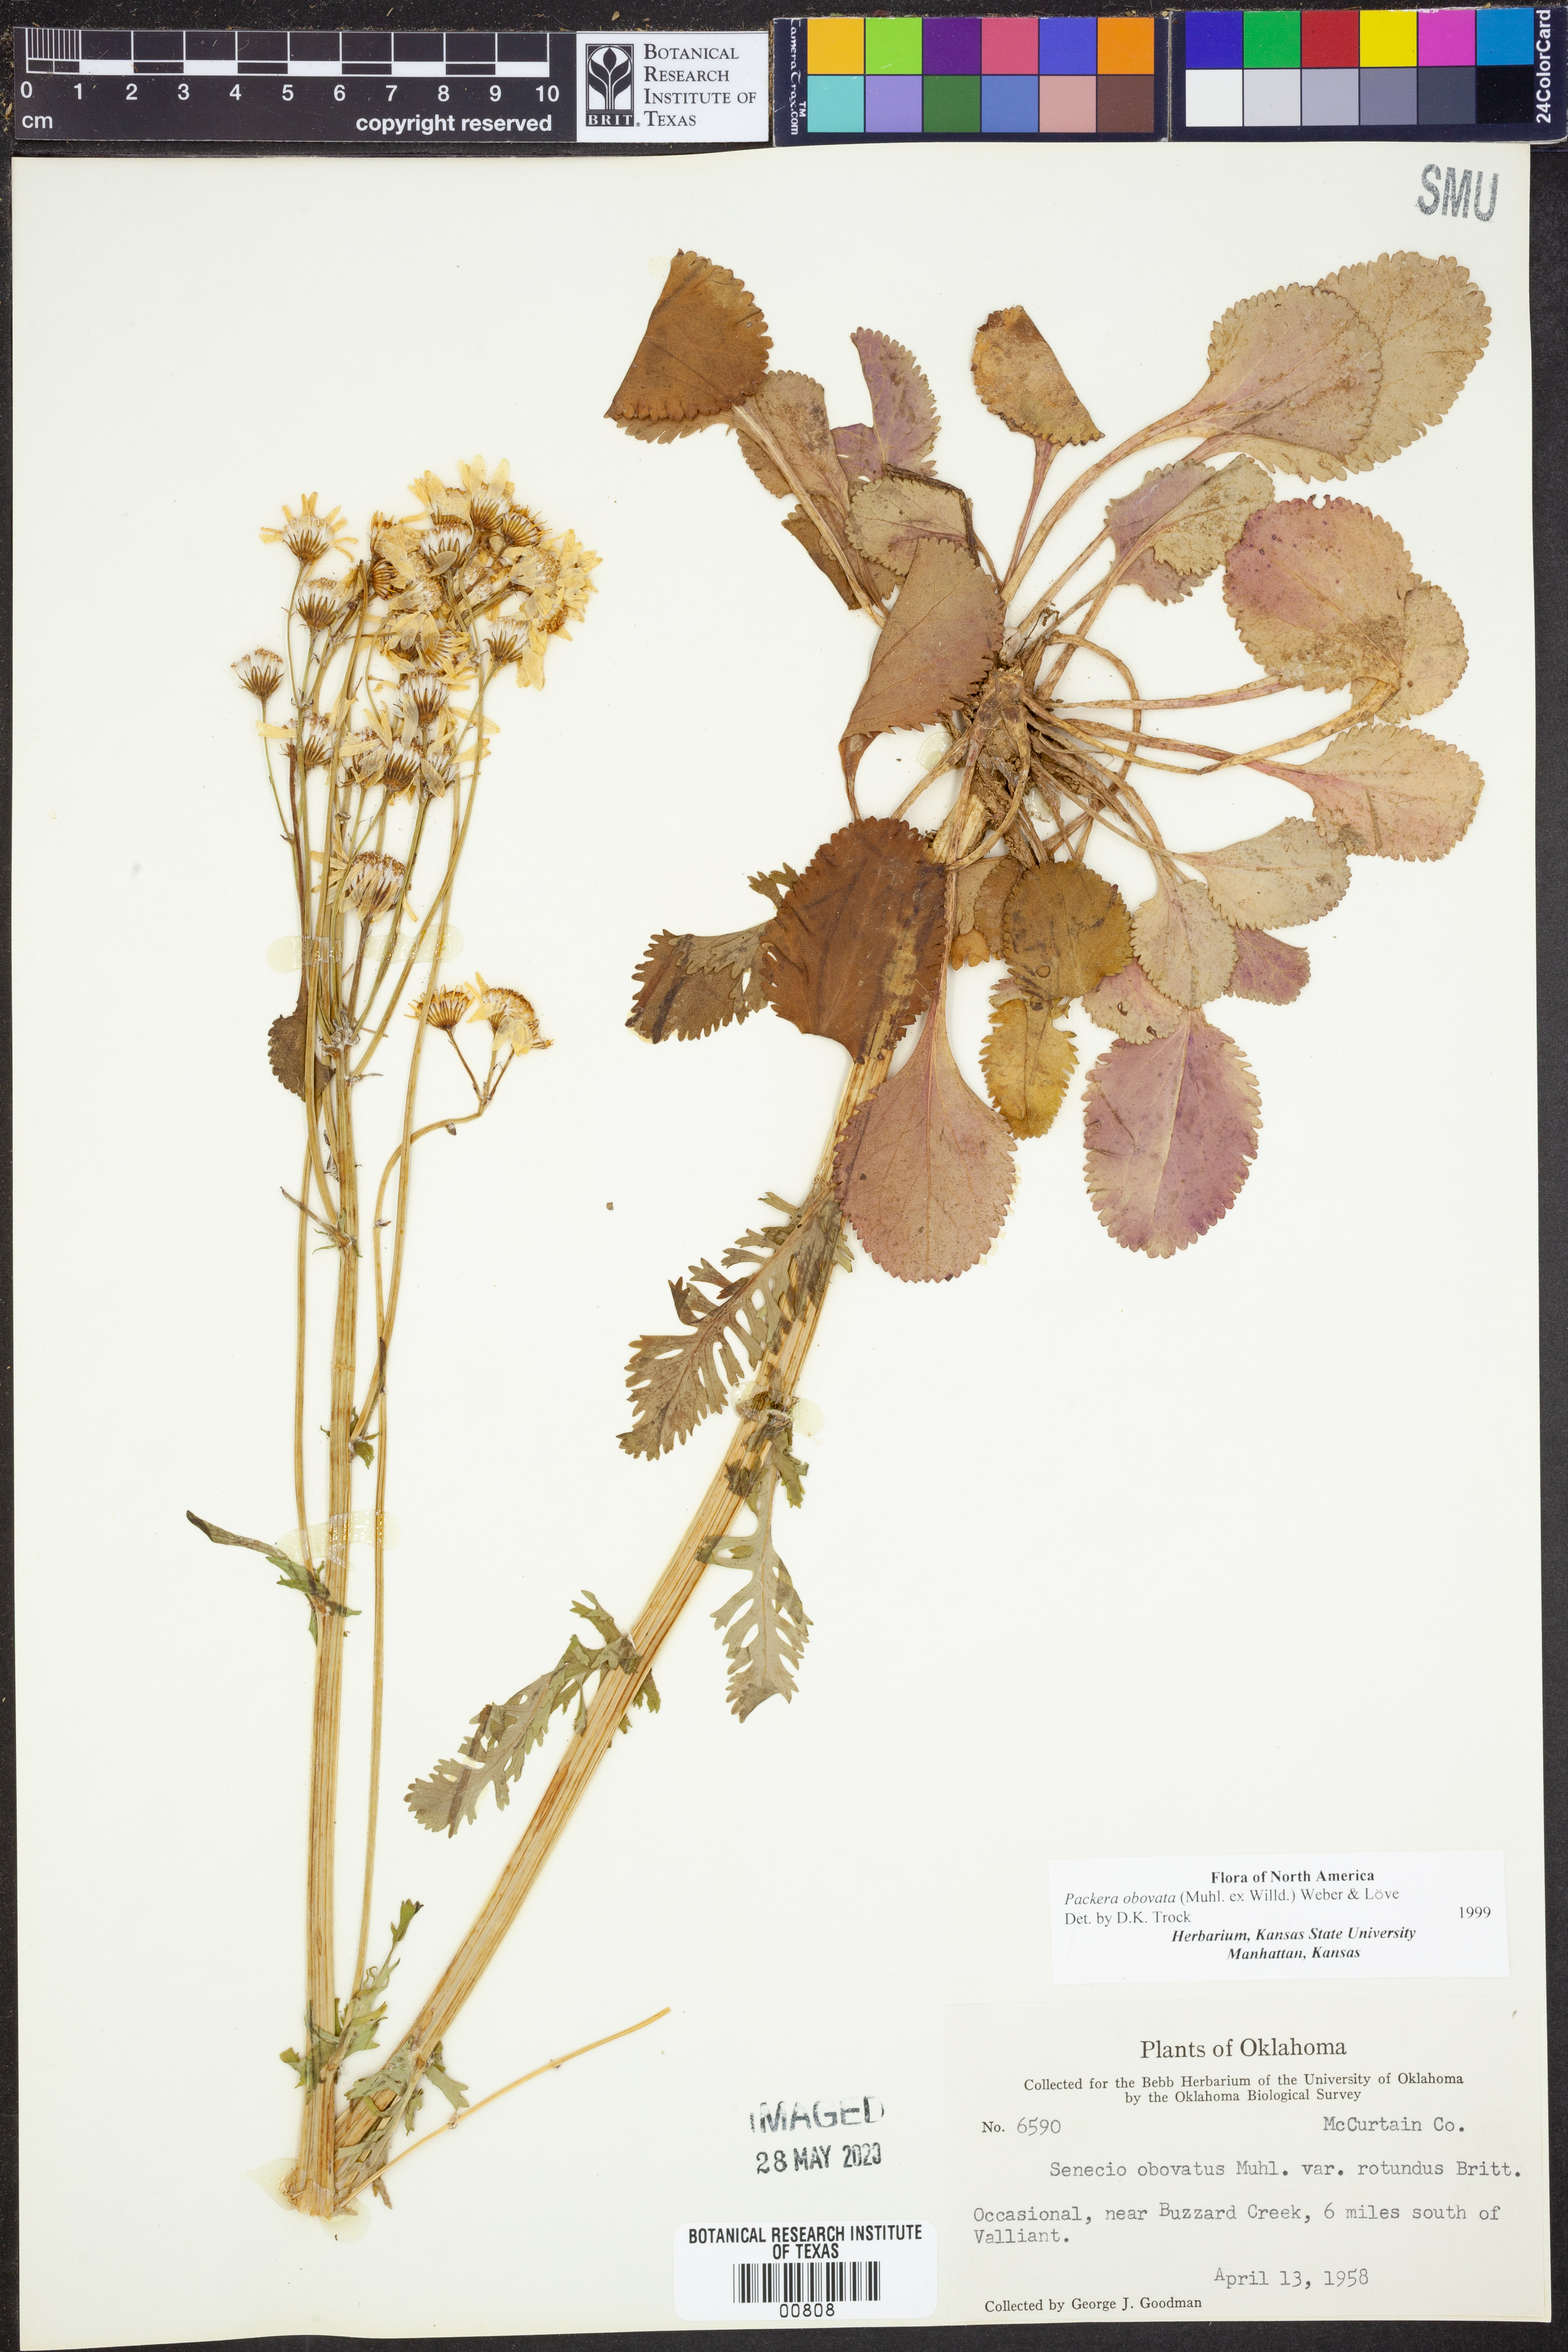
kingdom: Plantae
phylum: Tracheophyta
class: Magnoliopsida
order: Asterales
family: Asteraceae
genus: Packera
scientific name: Packera obovata
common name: Round-leaf ragwort
